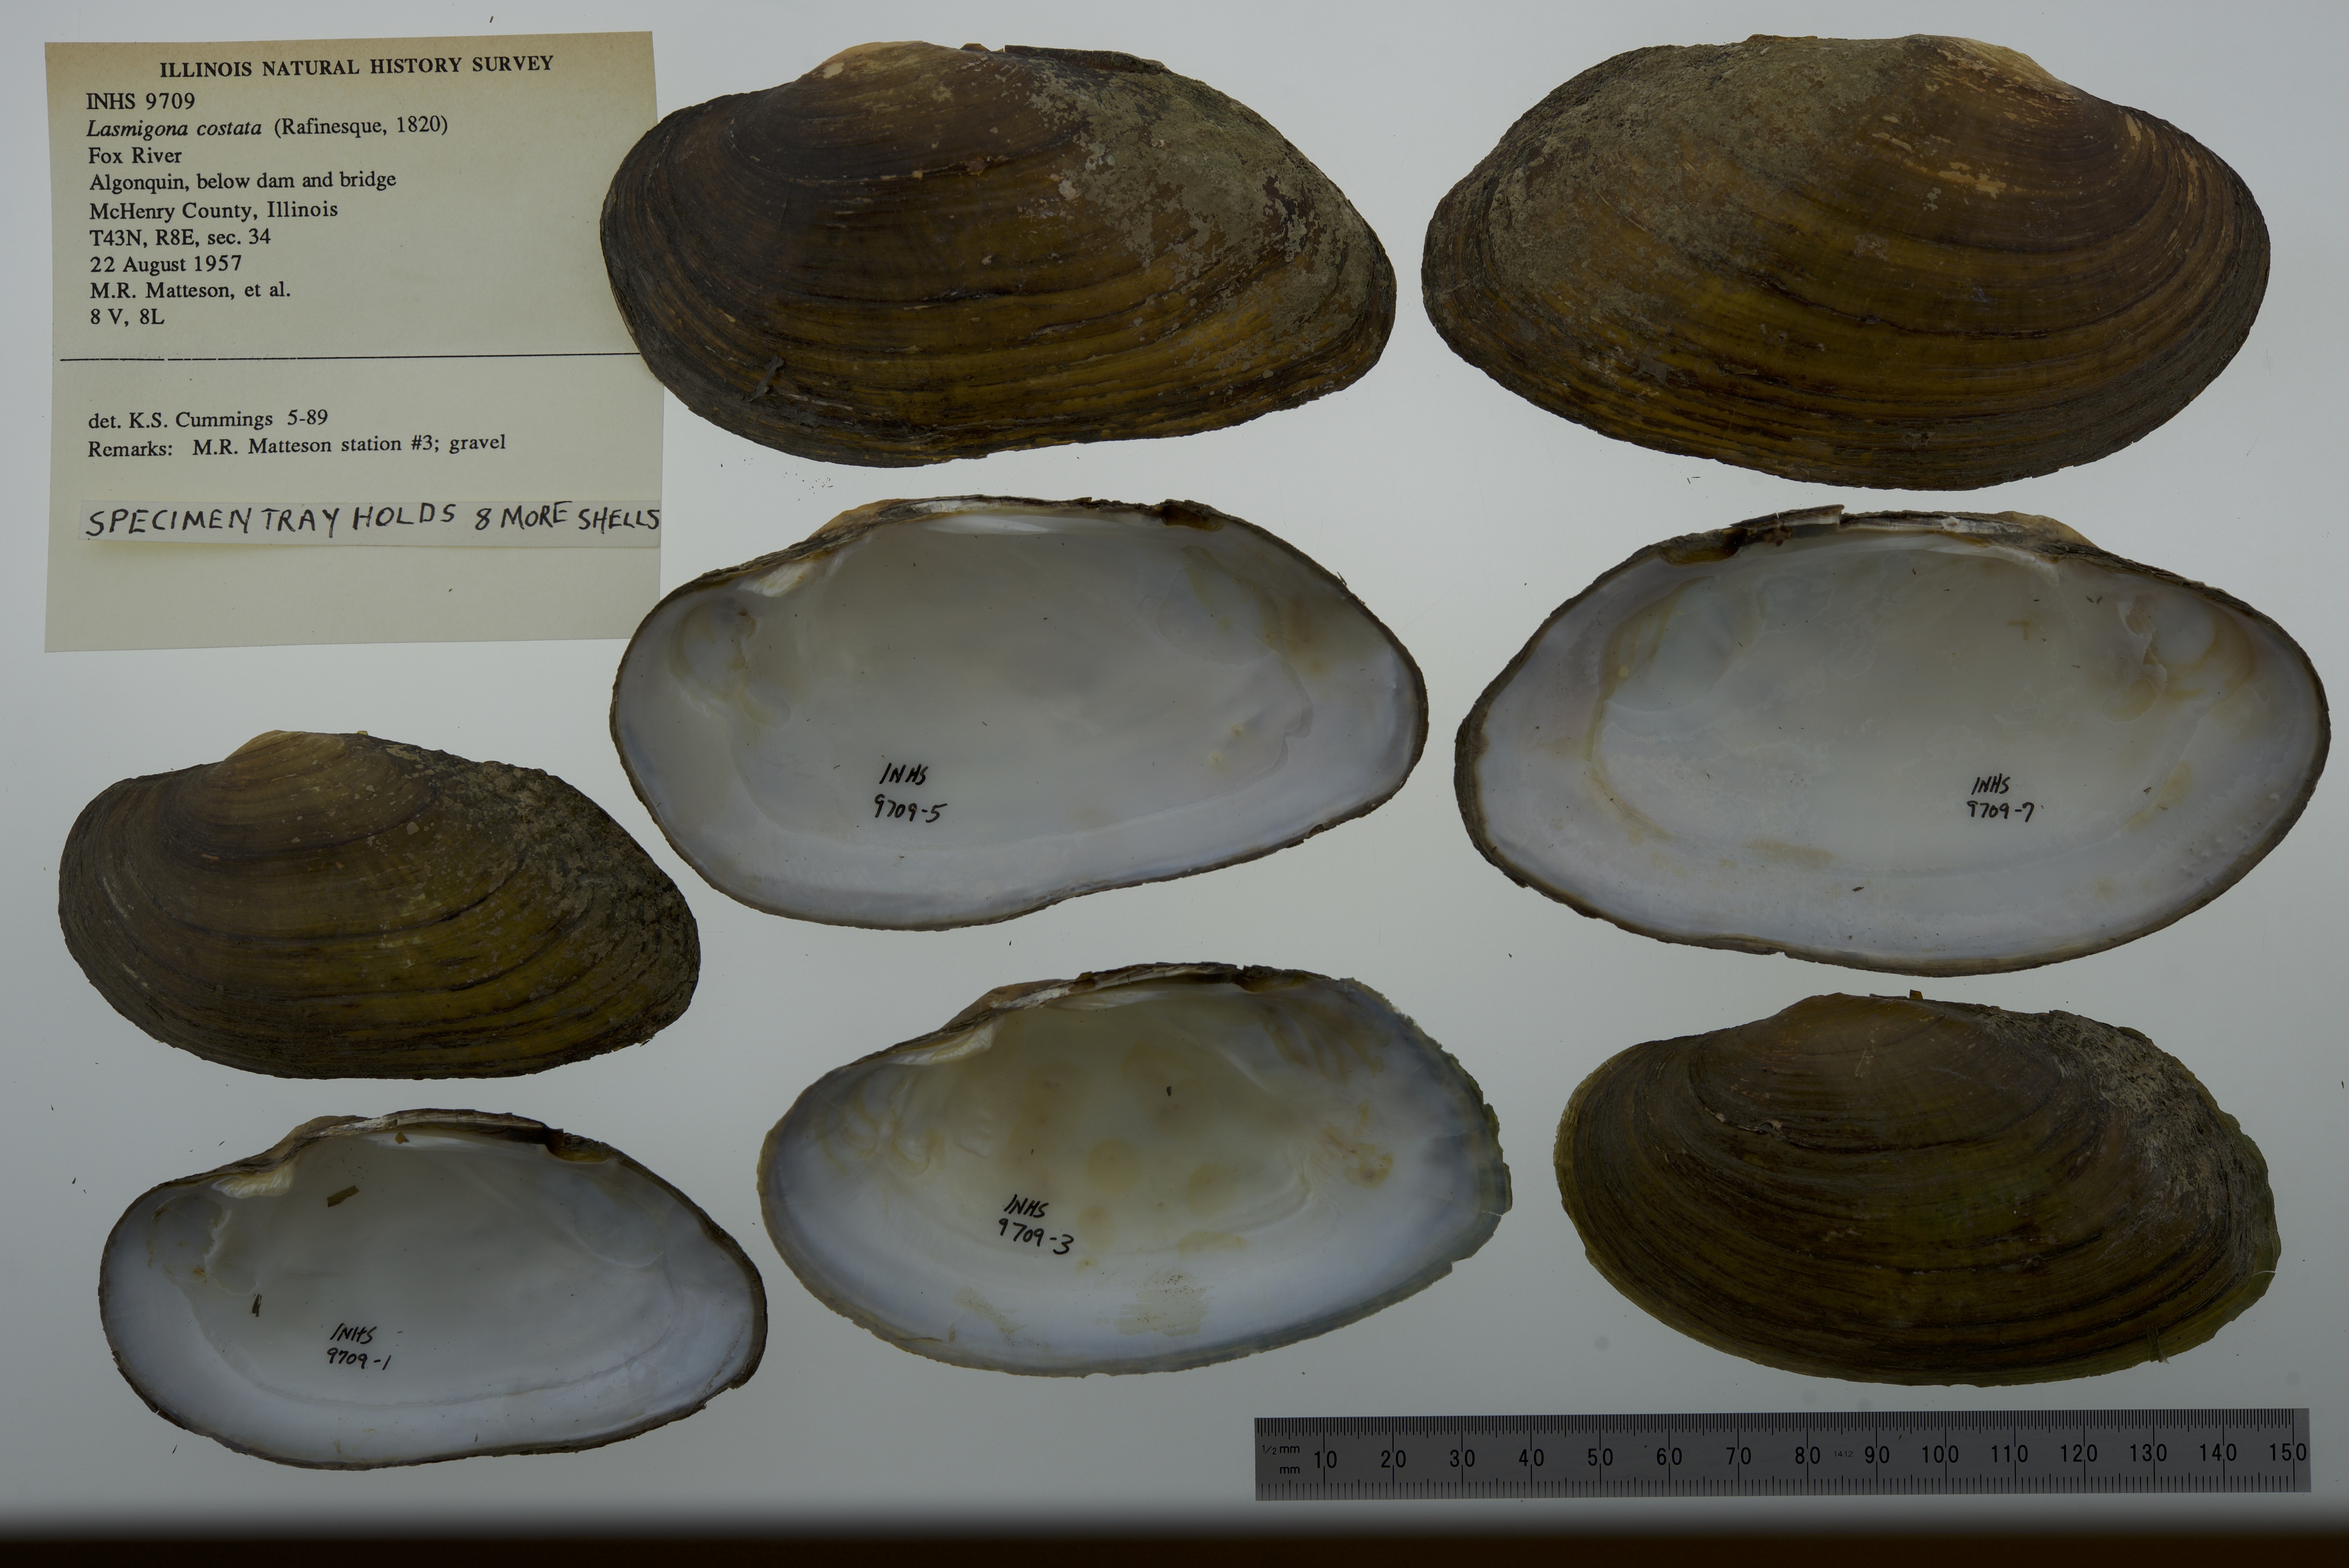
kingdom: Animalia
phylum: Mollusca
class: Bivalvia
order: Unionida
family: Unionidae
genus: Lasmigona
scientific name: Lasmigona costata
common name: Flutedshell
